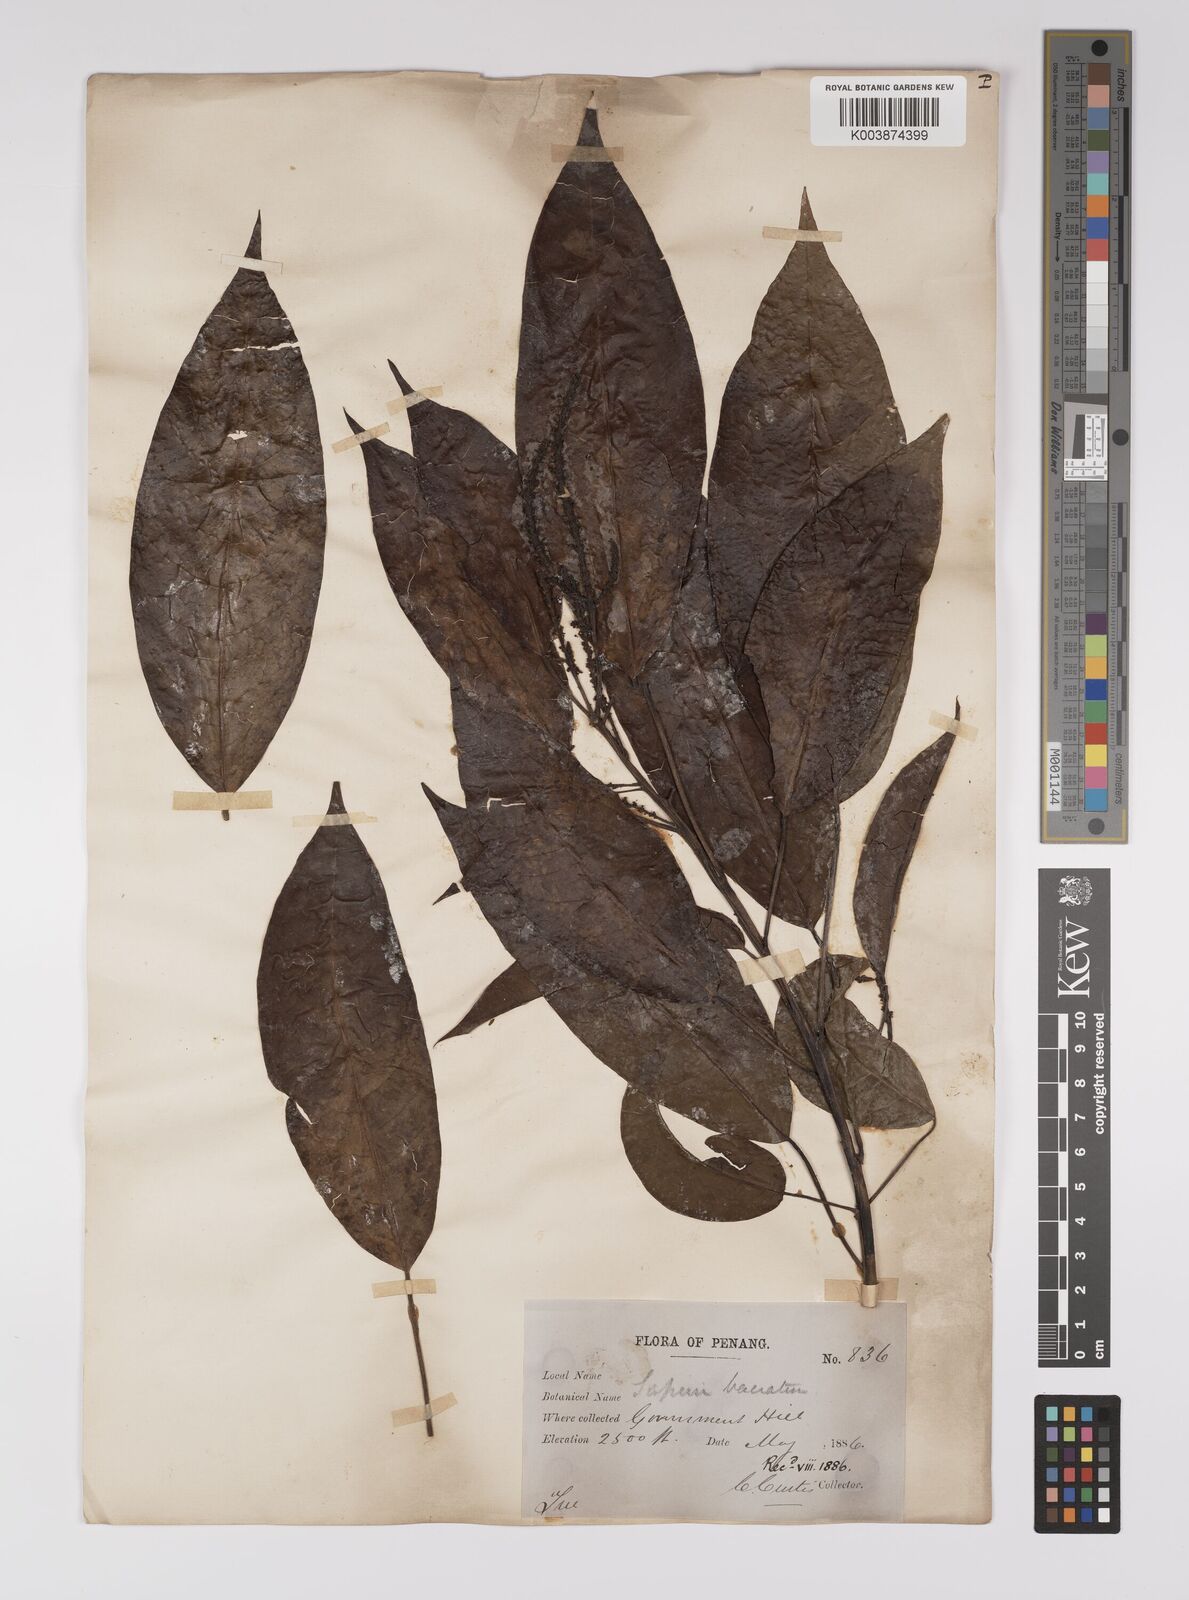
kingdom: Plantae
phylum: Tracheophyta
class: Magnoliopsida
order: Malpighiales
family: Euphorbiaceae
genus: Balakata
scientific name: Balakata baccata
